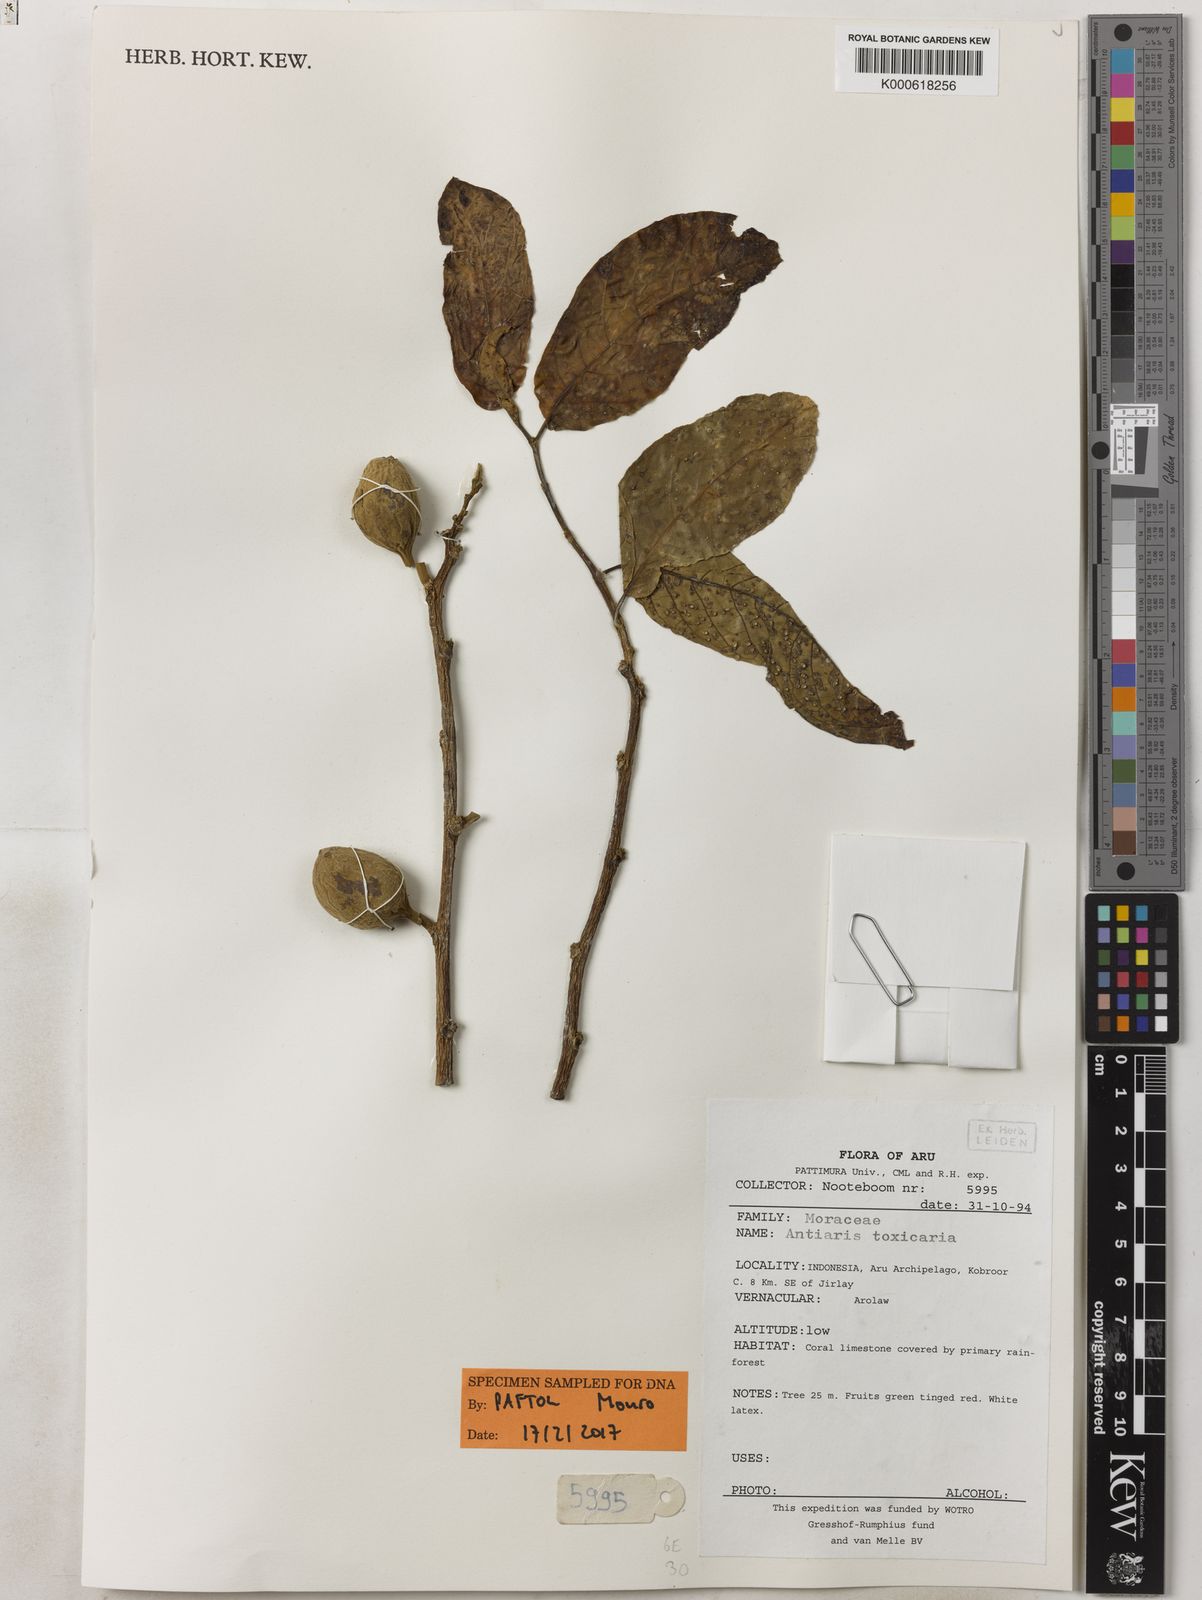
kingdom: Plantae
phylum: Tracheophyta
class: Magnoliopsida
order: Rosales
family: Moraceae
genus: Antiaris
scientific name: Antiaris toxicaria
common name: Sackingtree
